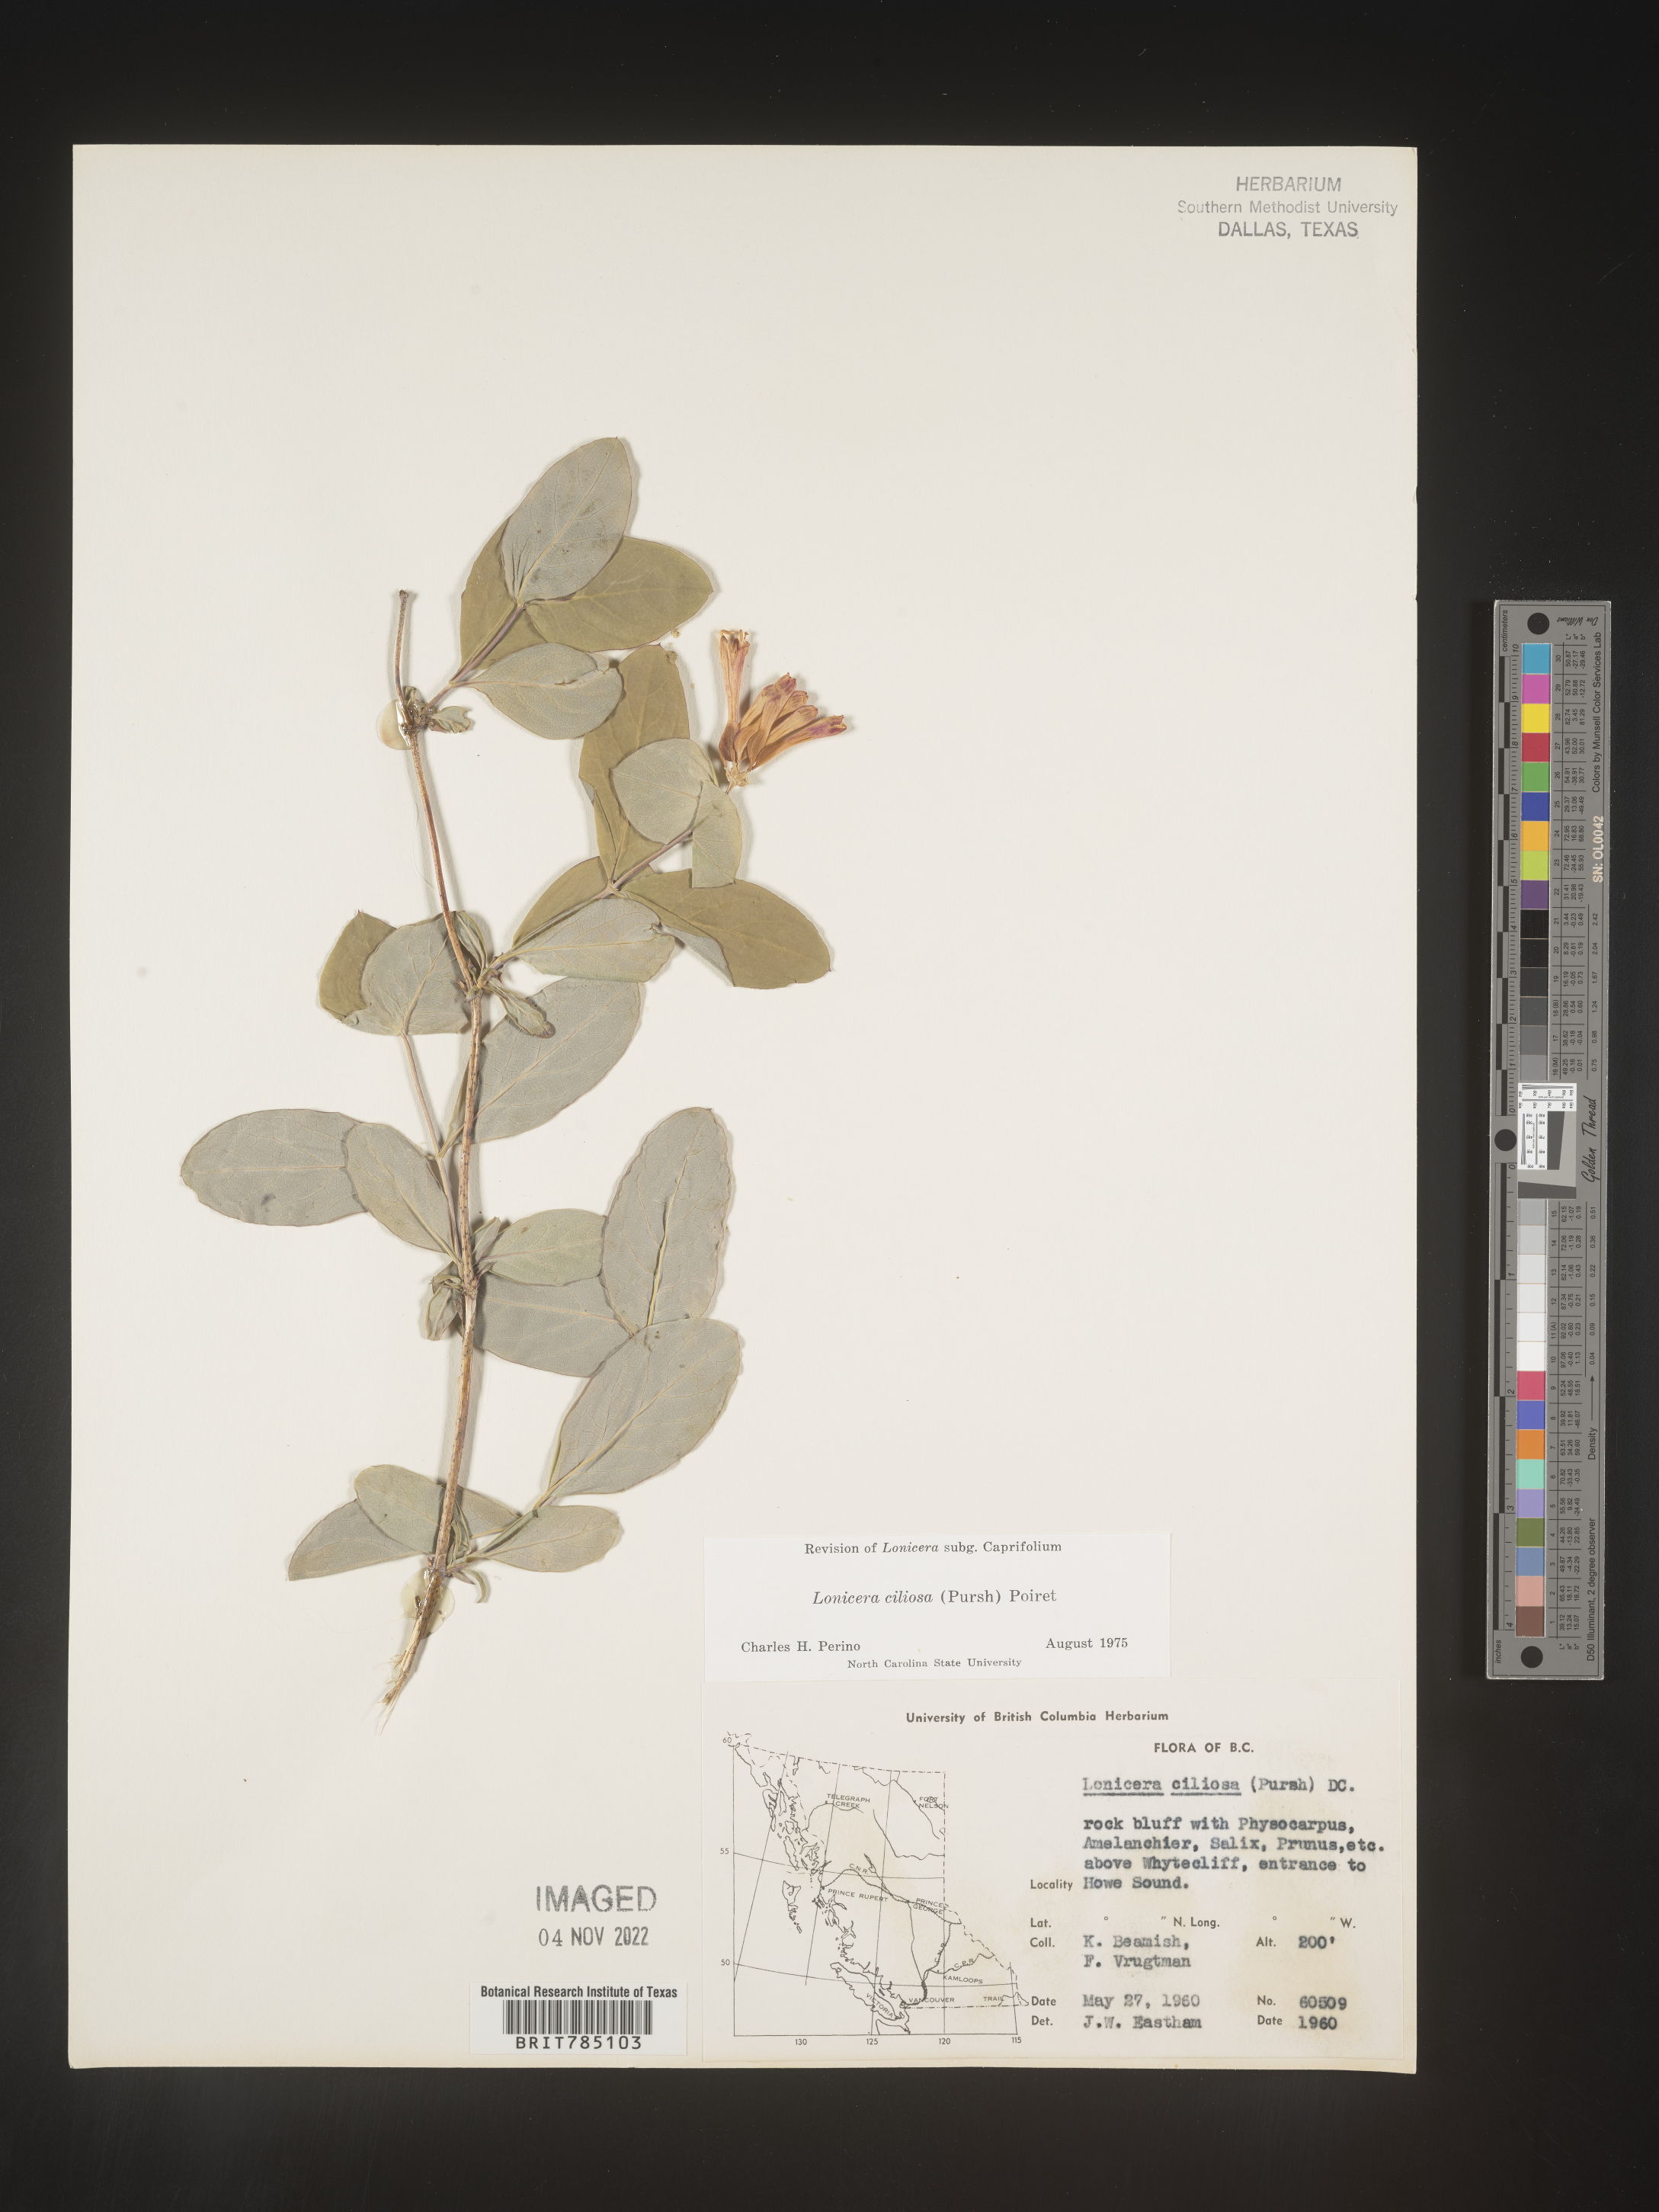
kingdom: Plantae
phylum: Tracheophyta
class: Magnoliopsida
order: Dipsacales
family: Caprifoliaceae
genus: Lonicera
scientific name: Lonicera
